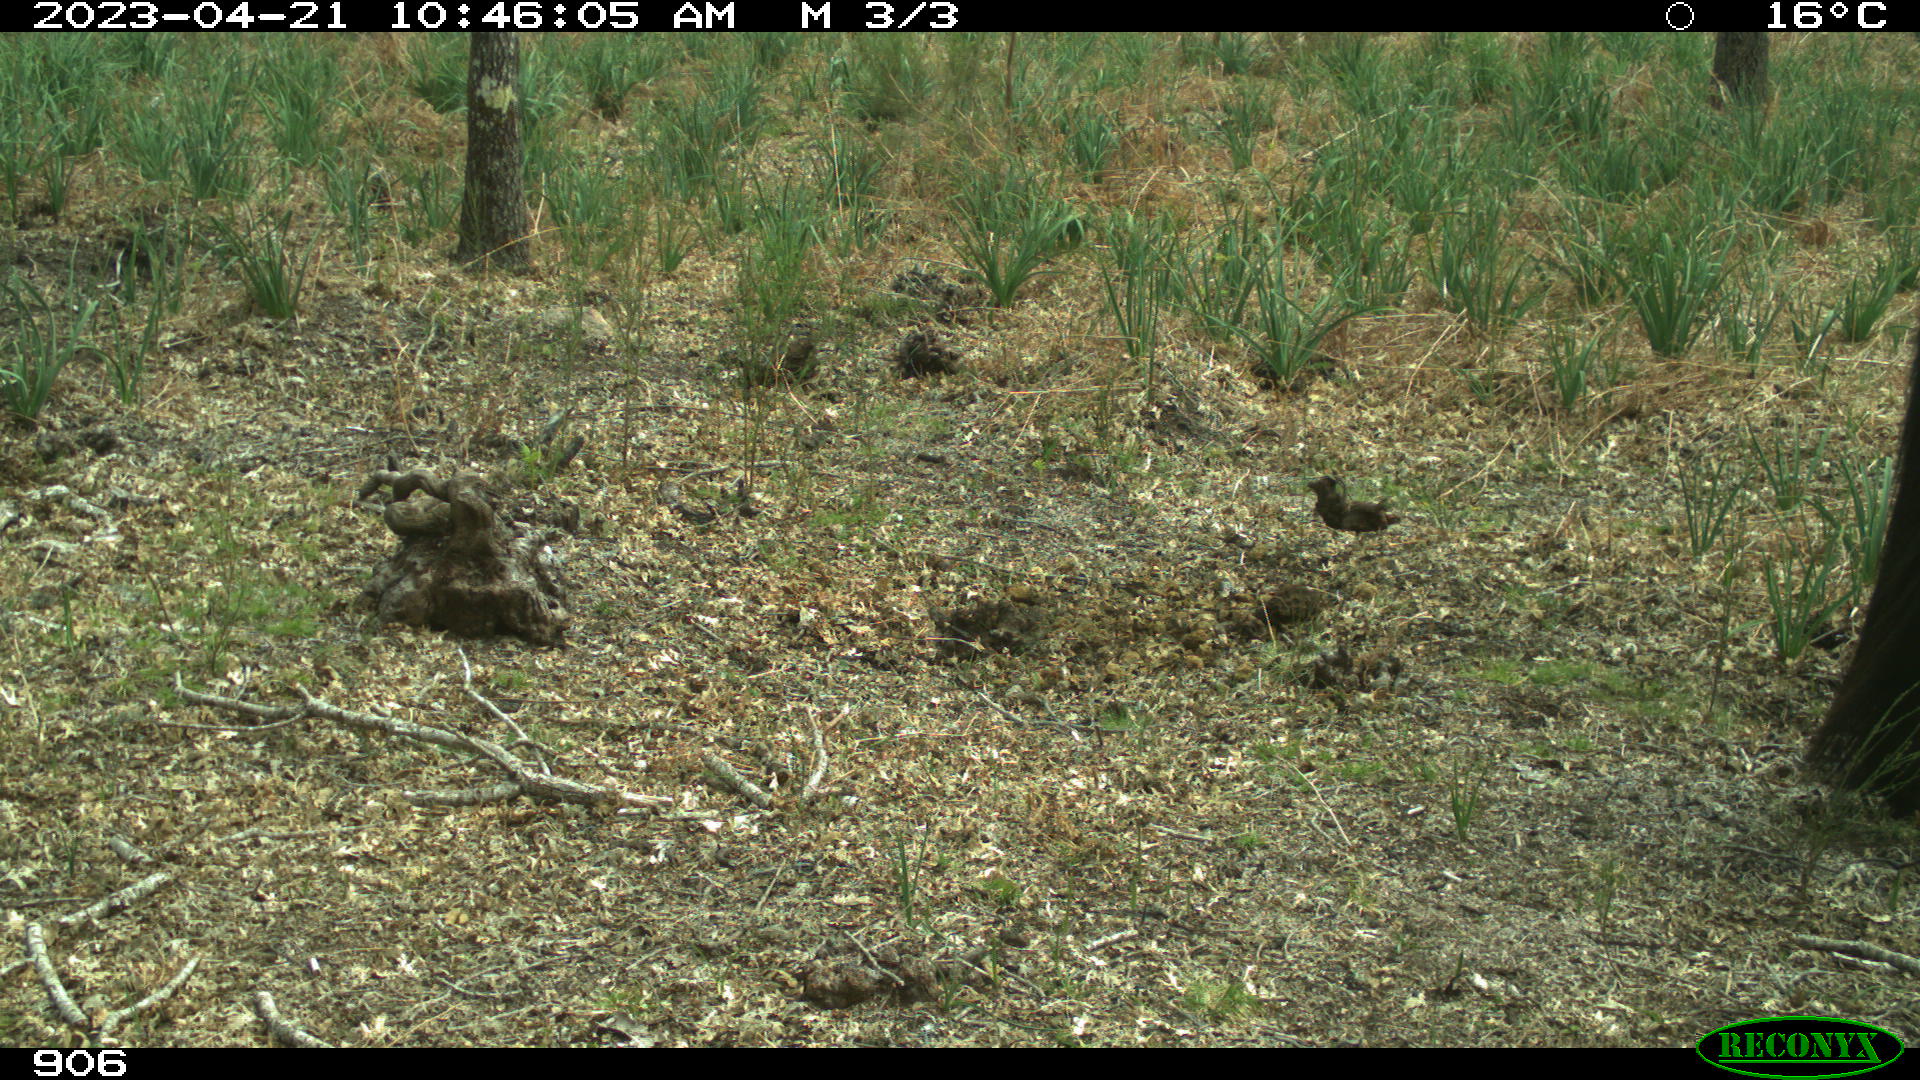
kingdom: Animalia
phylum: Chordata
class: Mammalia
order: Perissodactyla
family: Equidae
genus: Equus
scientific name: Equus caballus
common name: Horse
